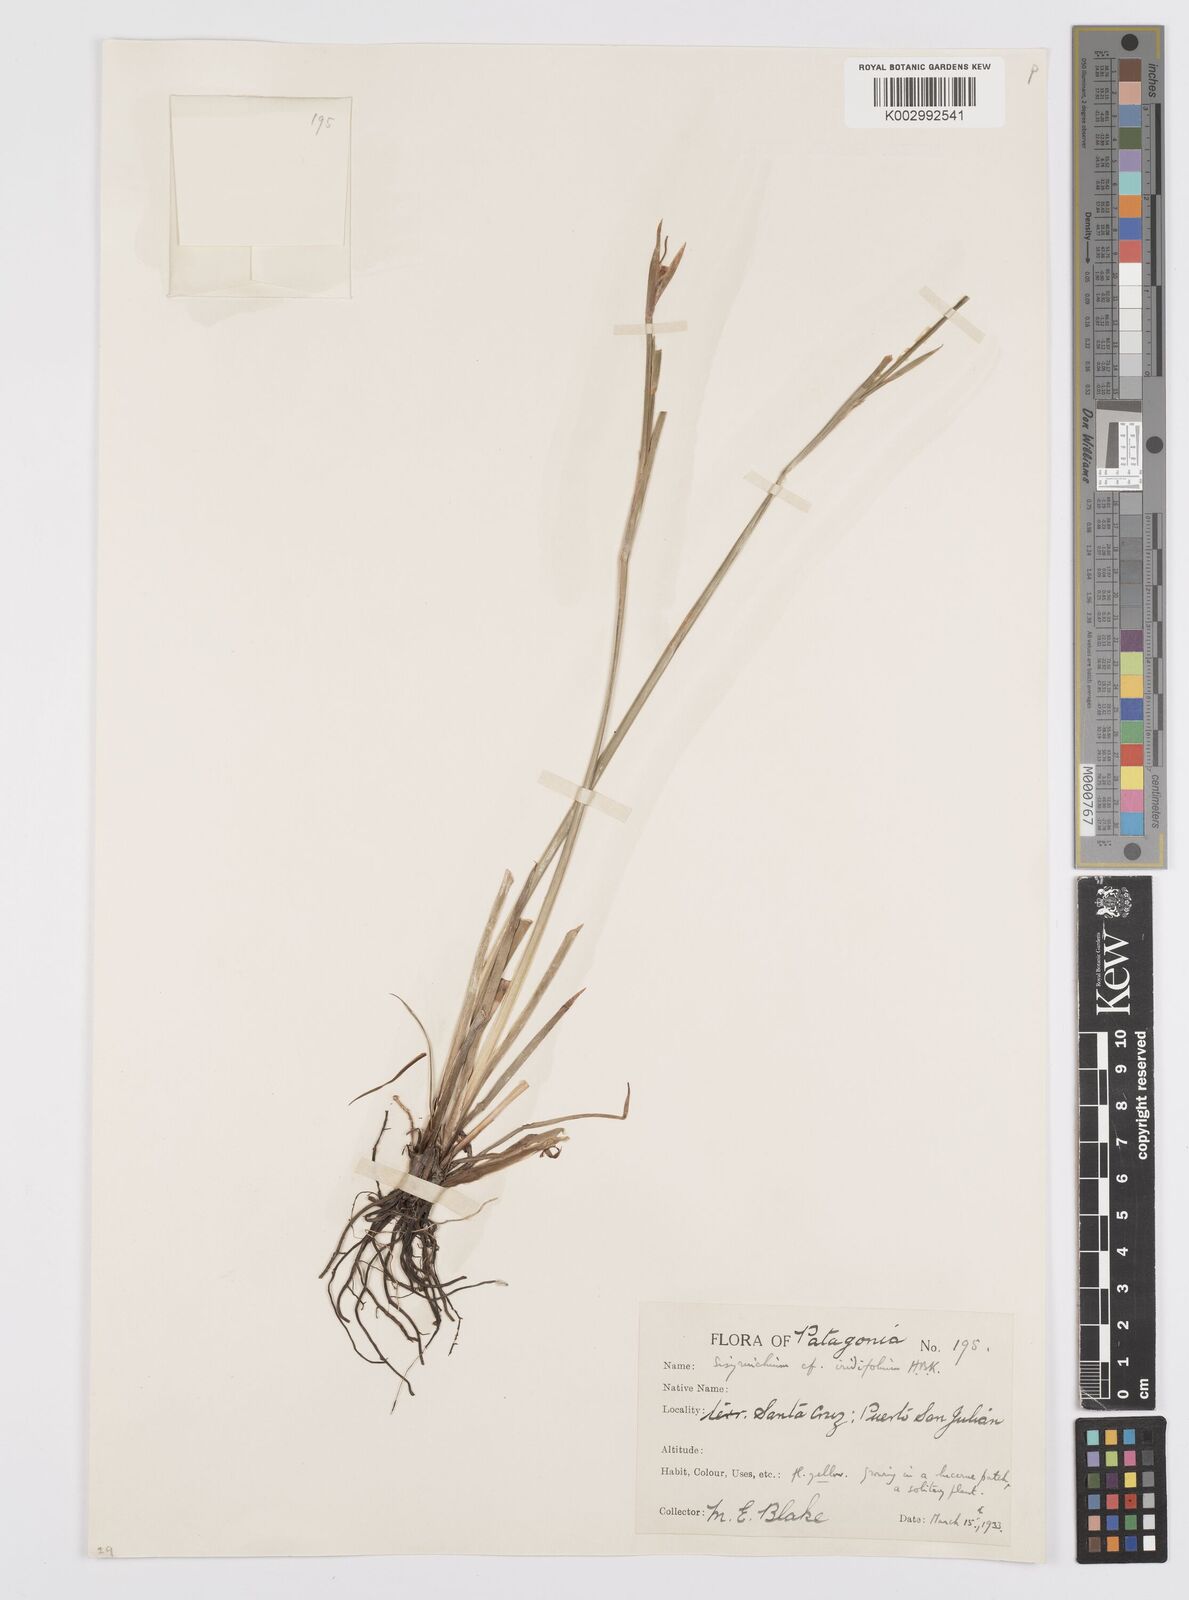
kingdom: Plantae
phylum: Tracheophyta
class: Liliopsida
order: Asparagales
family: Iridaceae
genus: Sisyrinchium
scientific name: Sisyrinchium micranthum
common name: Bermuda pigroot
